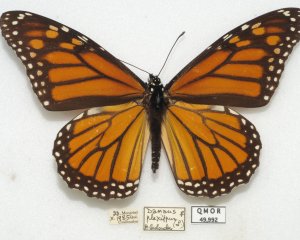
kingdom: Animalia
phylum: Arthropoda
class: Insecta
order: Lepidoptera
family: Nymphalidae
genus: Danaus
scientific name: Danaus plexippus
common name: Monarch
